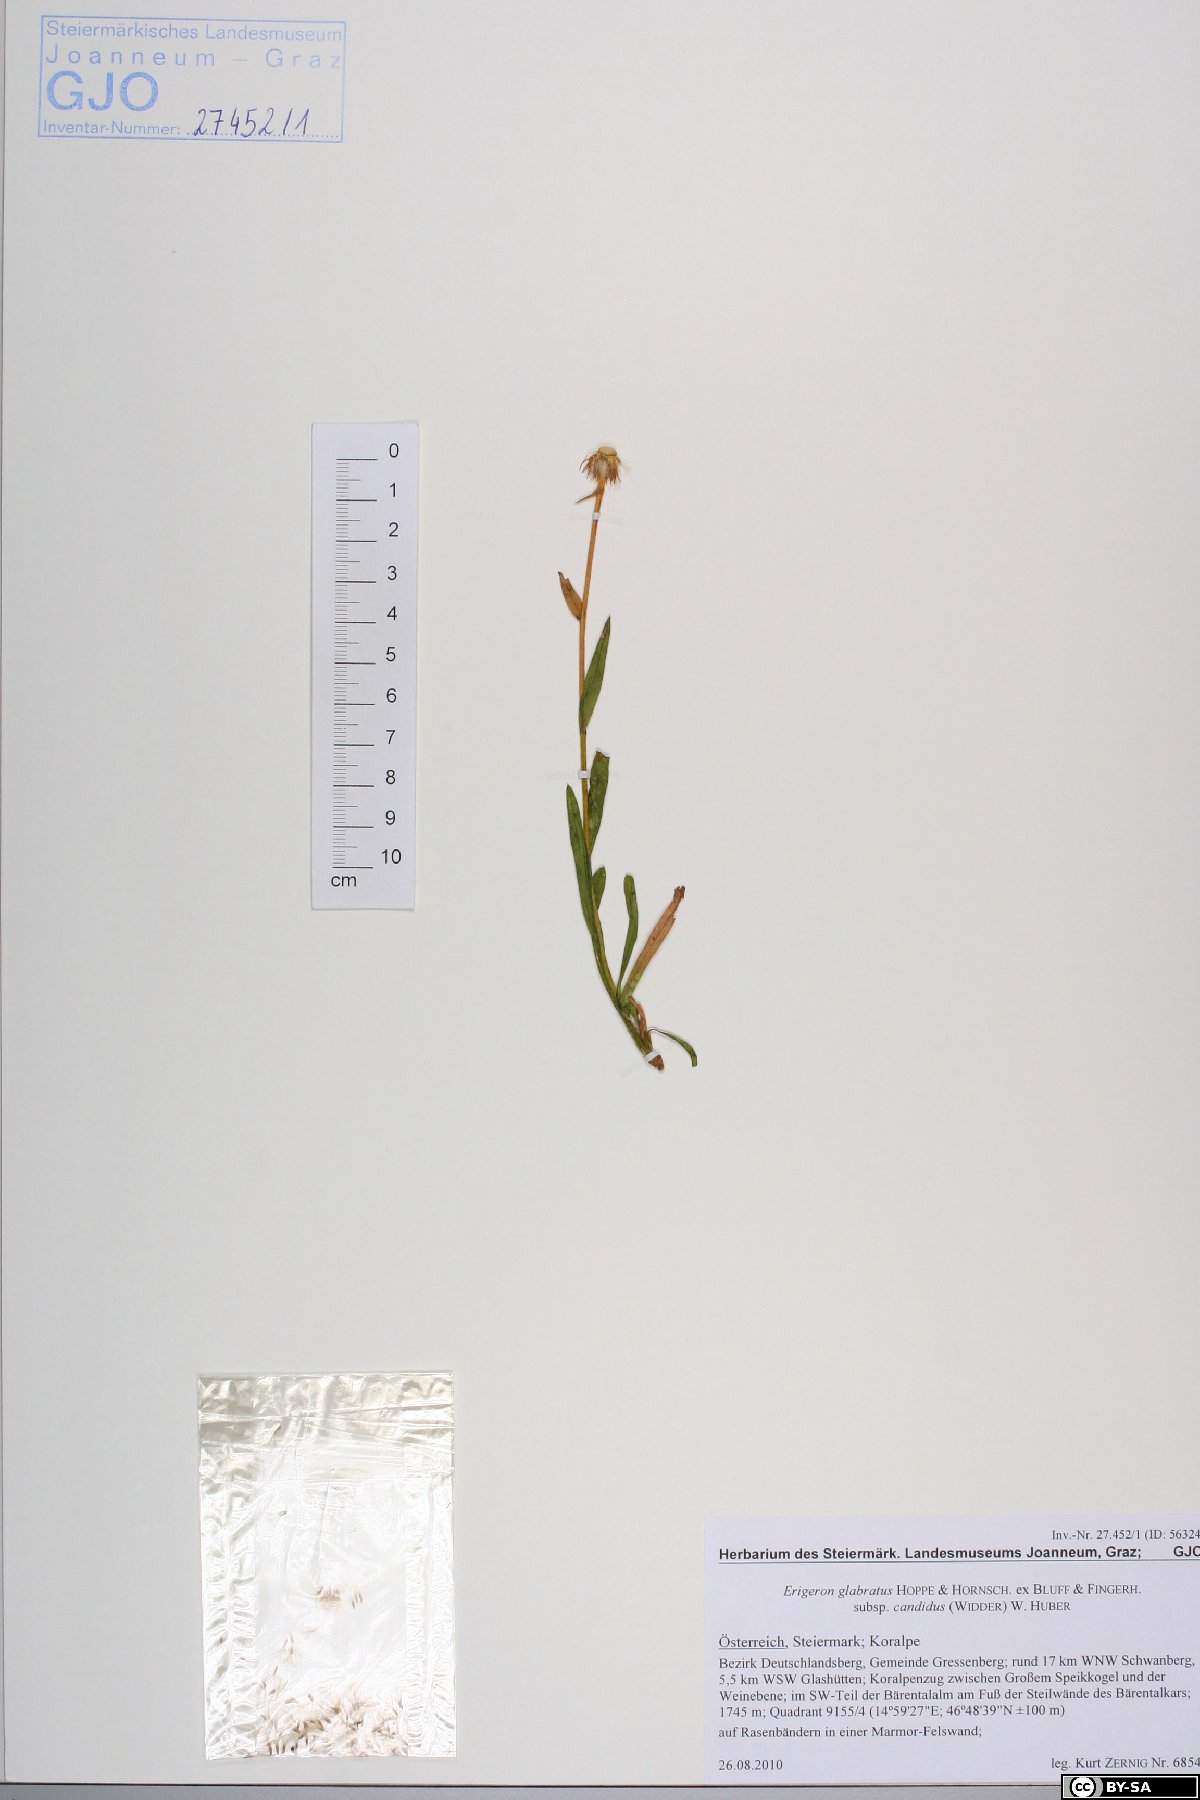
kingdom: Plantae
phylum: Tracheophyta
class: Magnoliopsida
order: Asterales
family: Asteraceae
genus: Erigeron
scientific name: Erigeron glabratus
